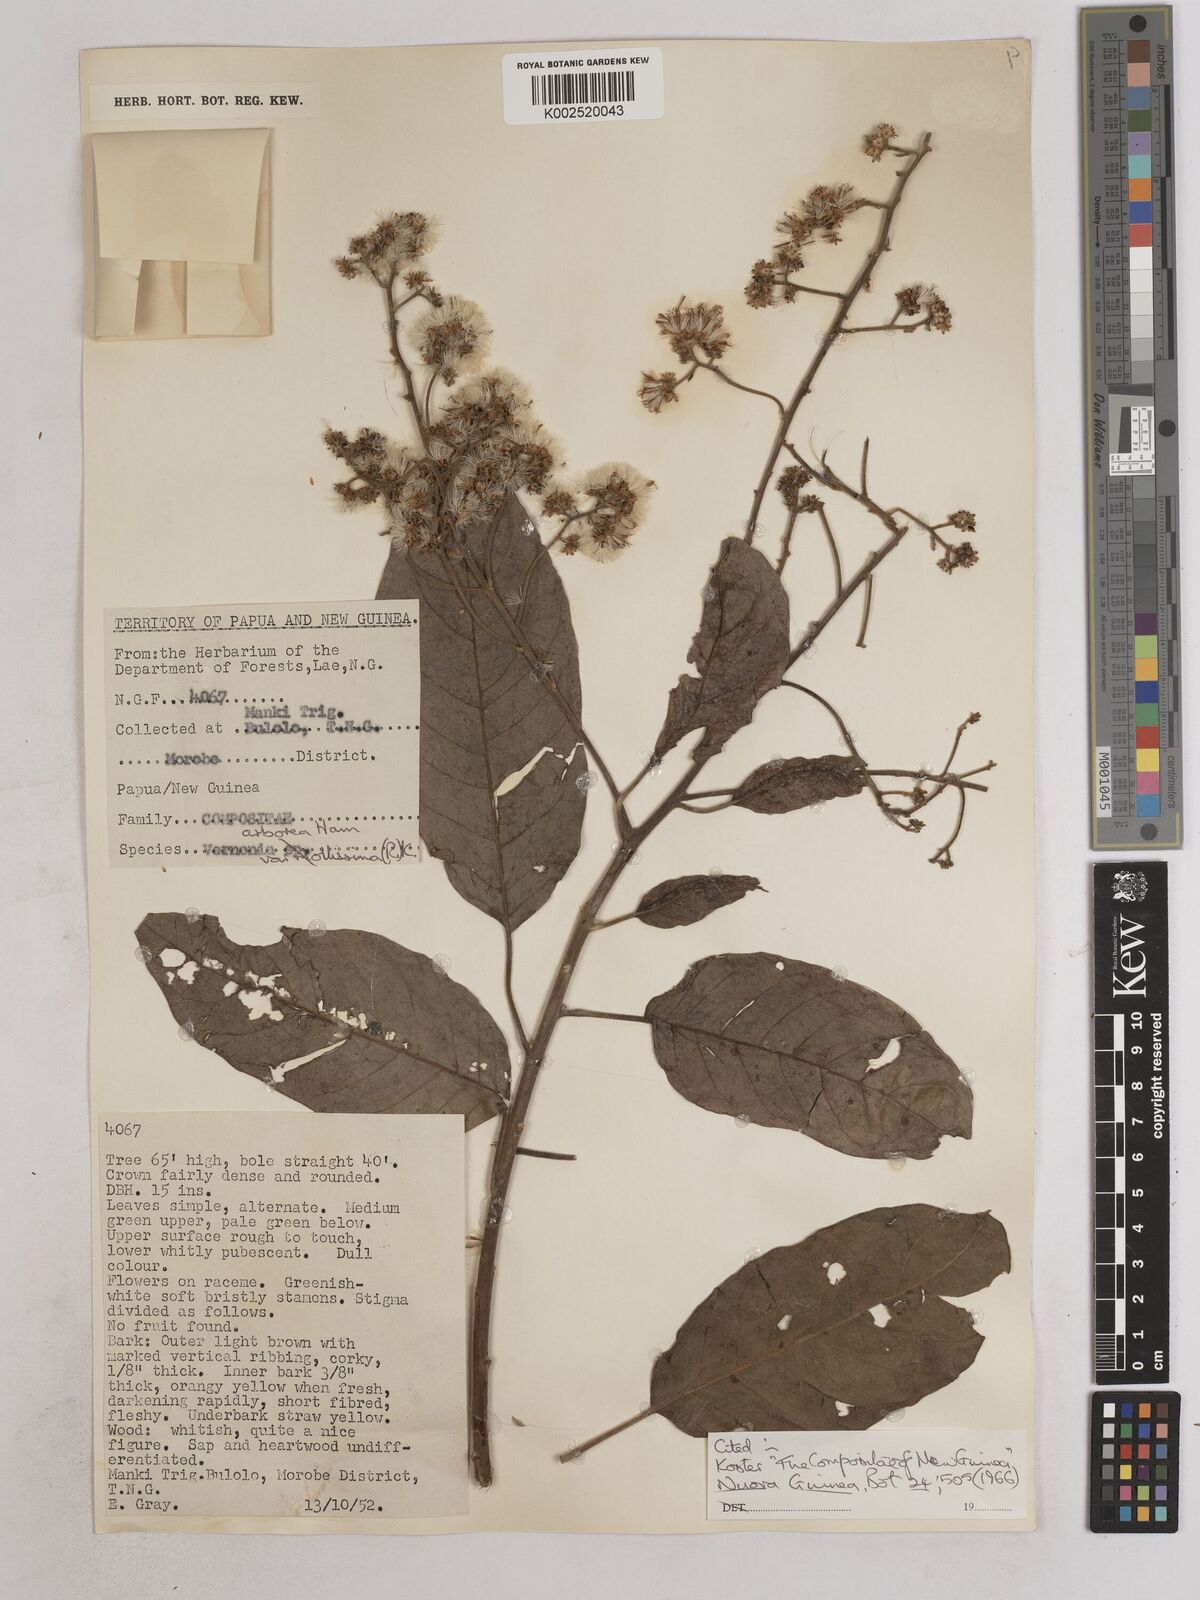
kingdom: Plantae
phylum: Tracheophyta
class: Magnoliopsida
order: Asterales
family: Asteraceae
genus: Strobocalyx
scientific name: Strobocalyx arborea
